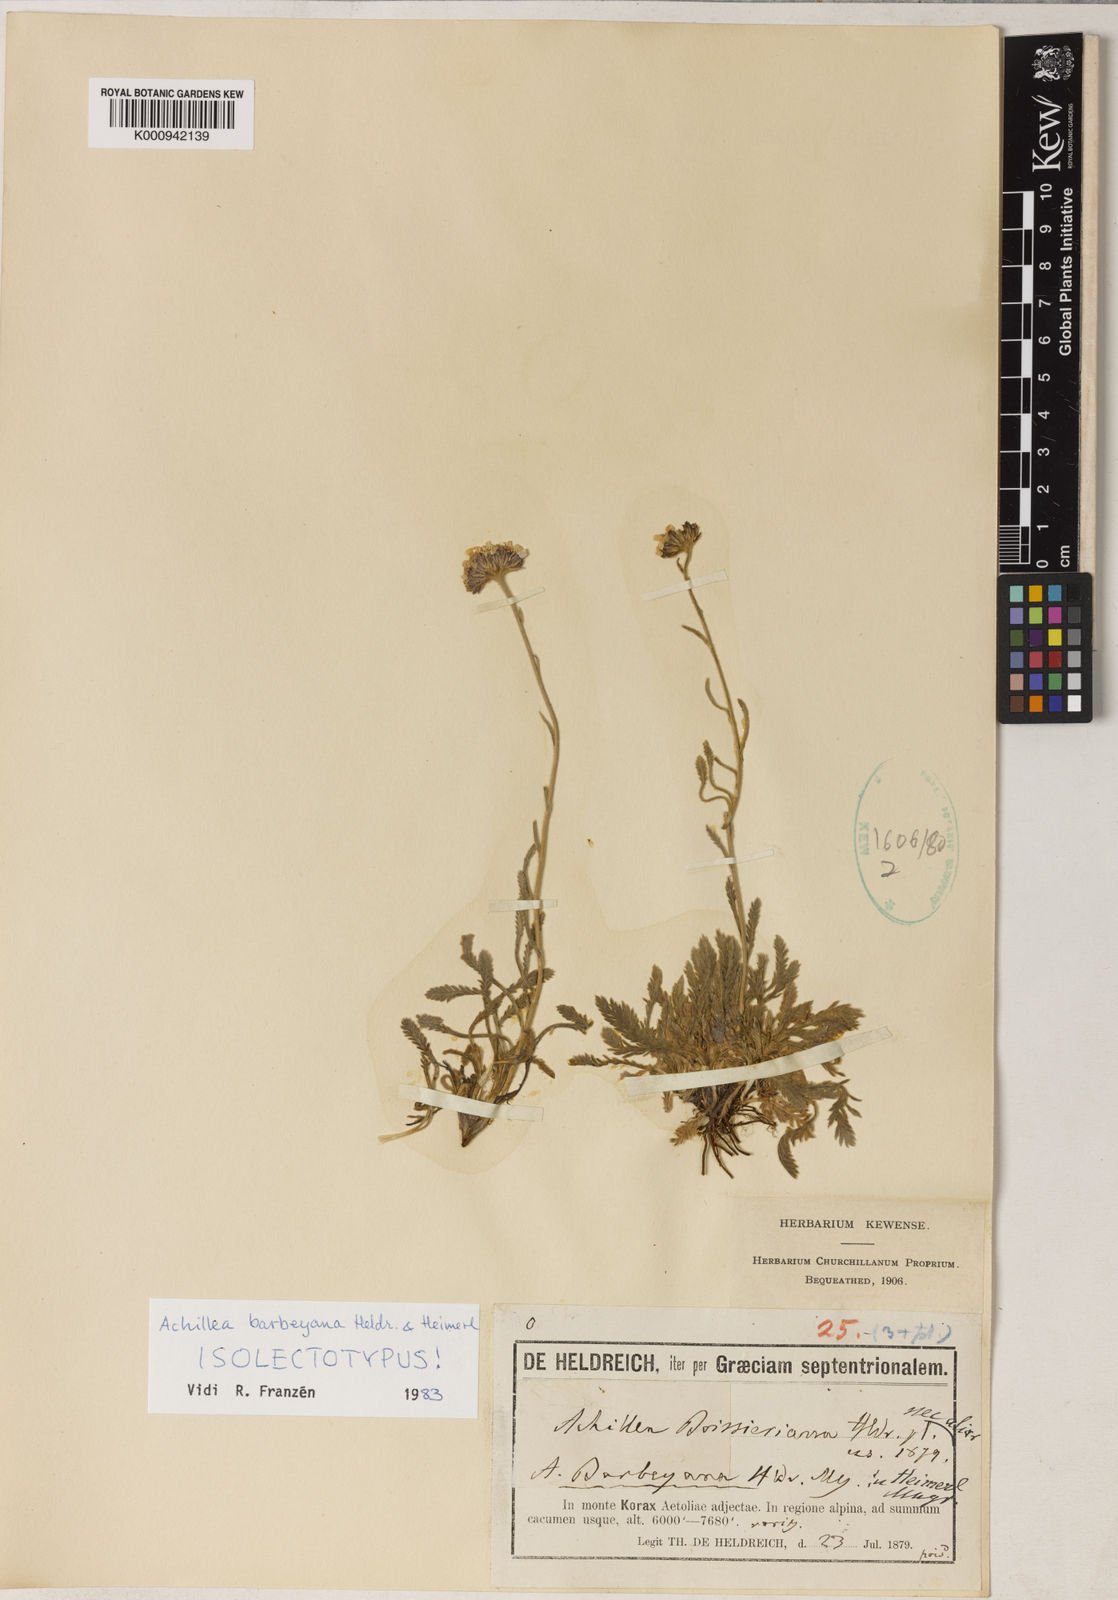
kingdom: Plantae
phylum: Tracheophyta
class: Magnoliopsida
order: Asterales
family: Asteraceae
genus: Achillea
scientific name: Achillea barbeyana
